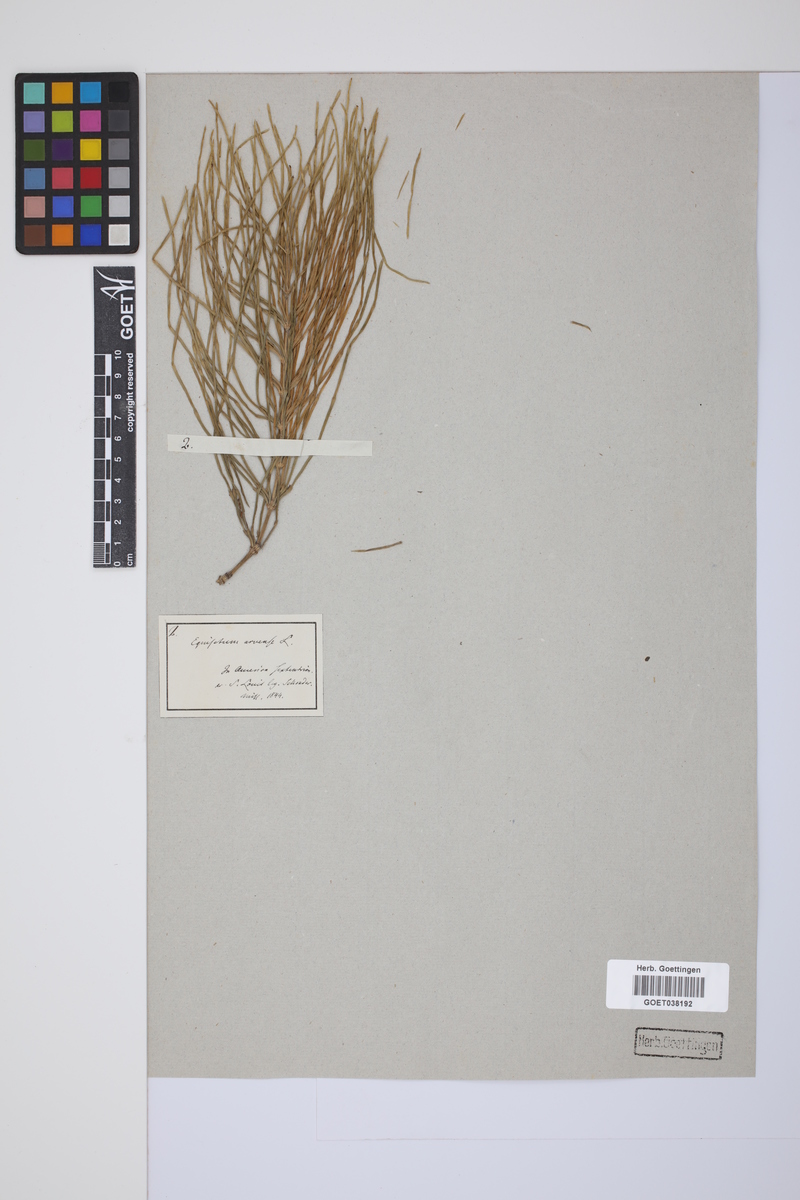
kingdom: Plantae
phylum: Tracheophyta
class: Polypodiopsida
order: Equisetales
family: Equisetaceae
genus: Equisetum
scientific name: Equisetum arvense
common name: Field horsetail
